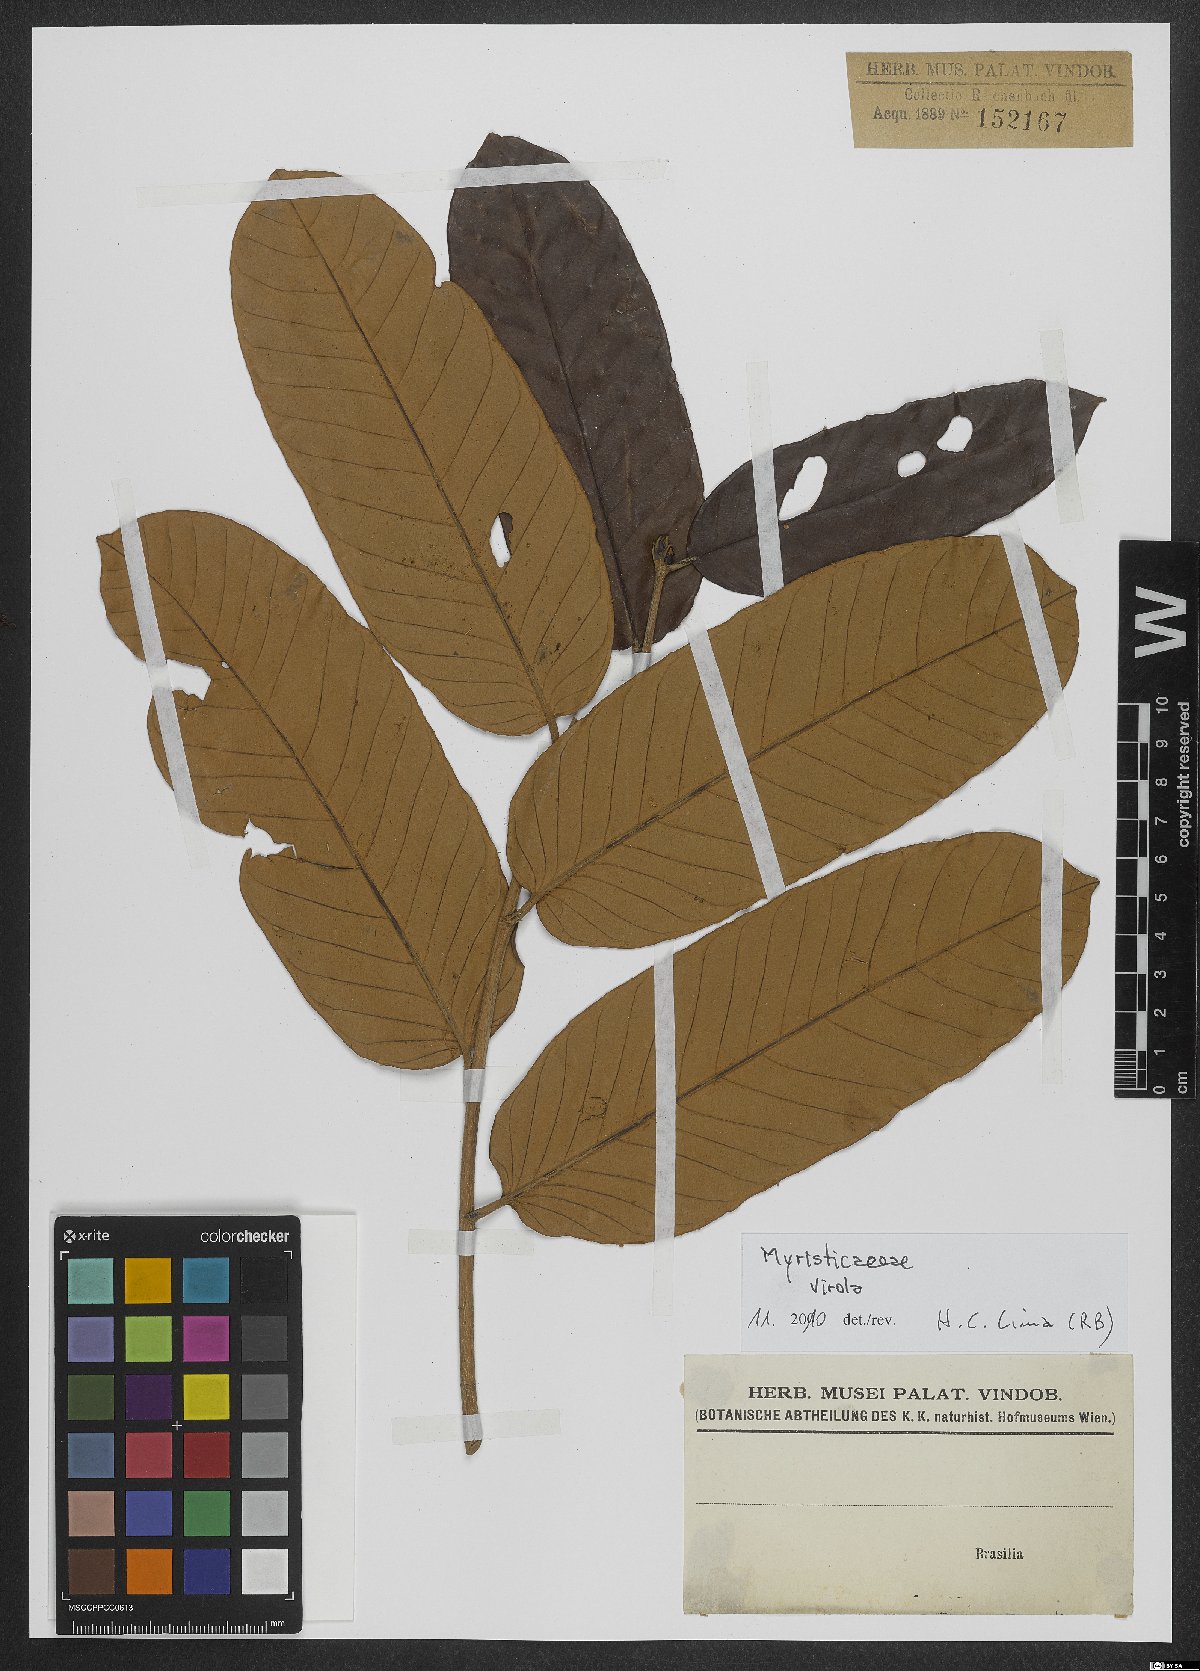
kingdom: Plantae
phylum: Tracheophyta
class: Magnoliopsida
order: Magnoliales
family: Myristicaceae
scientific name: Myristicaceae
